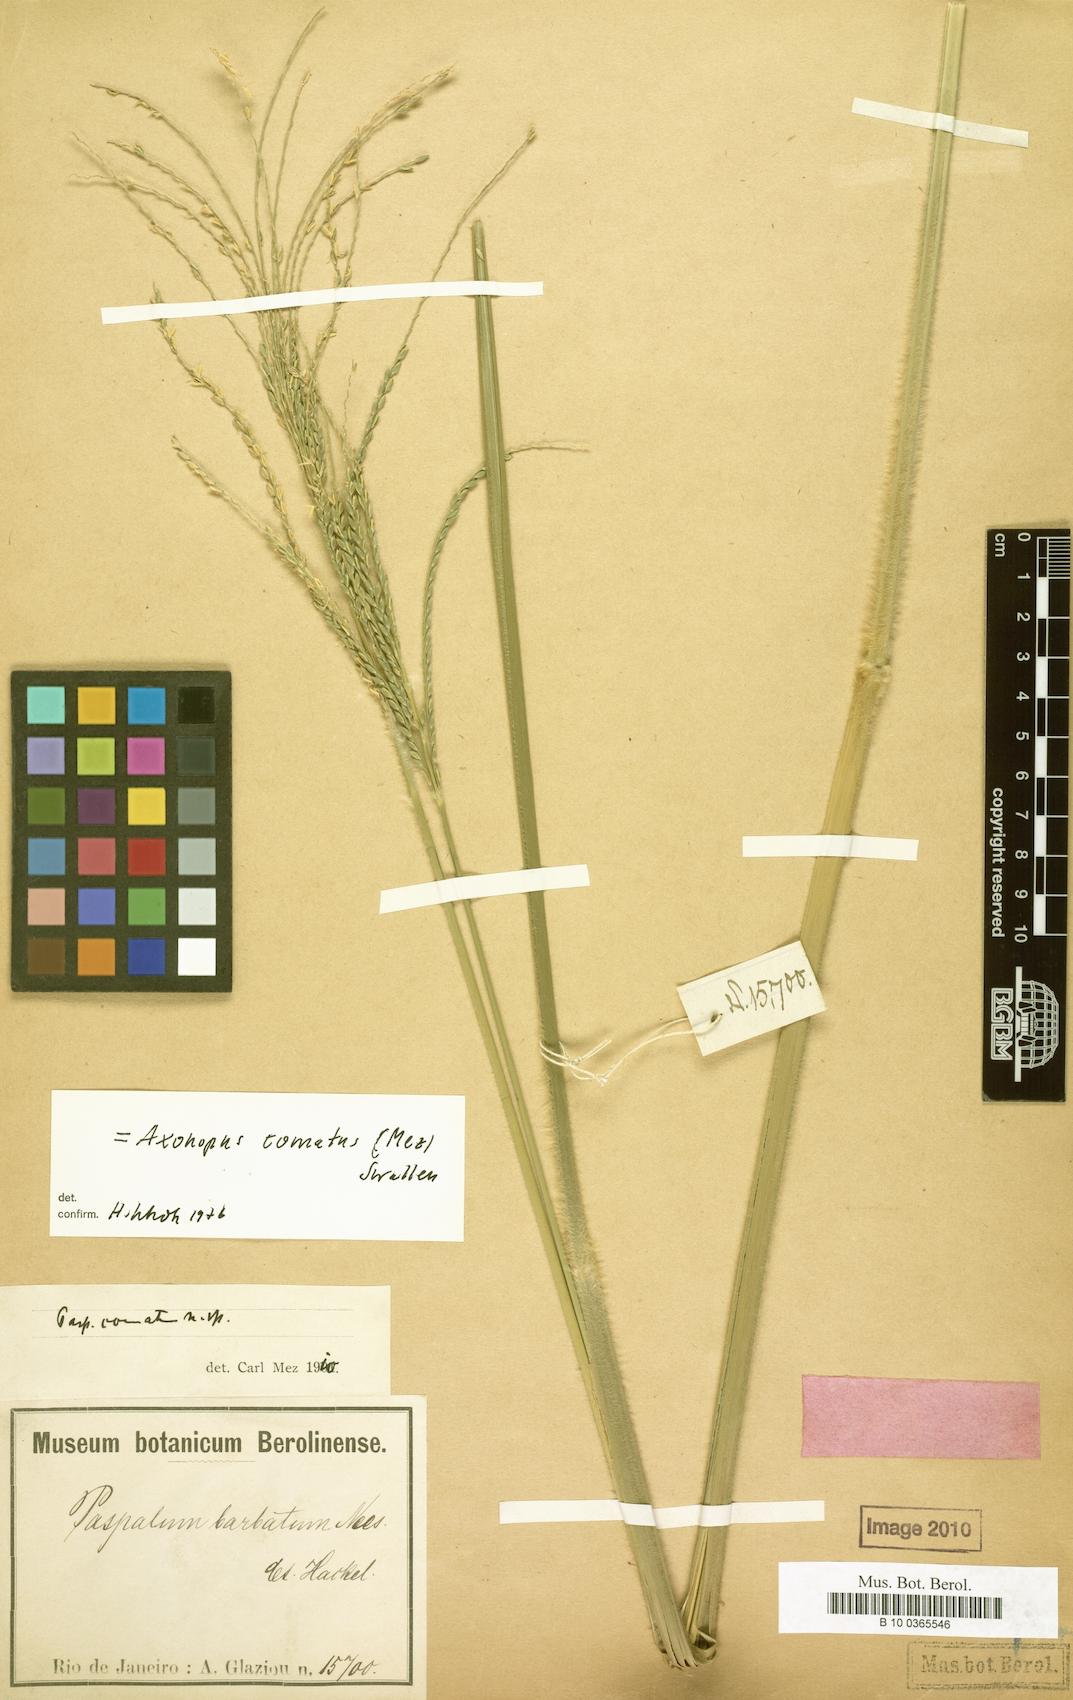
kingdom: Plantae
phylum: Tracheophyta
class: Liliopsida
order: Poales
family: Poaceae
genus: Axonopus
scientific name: Axonopus comatus
